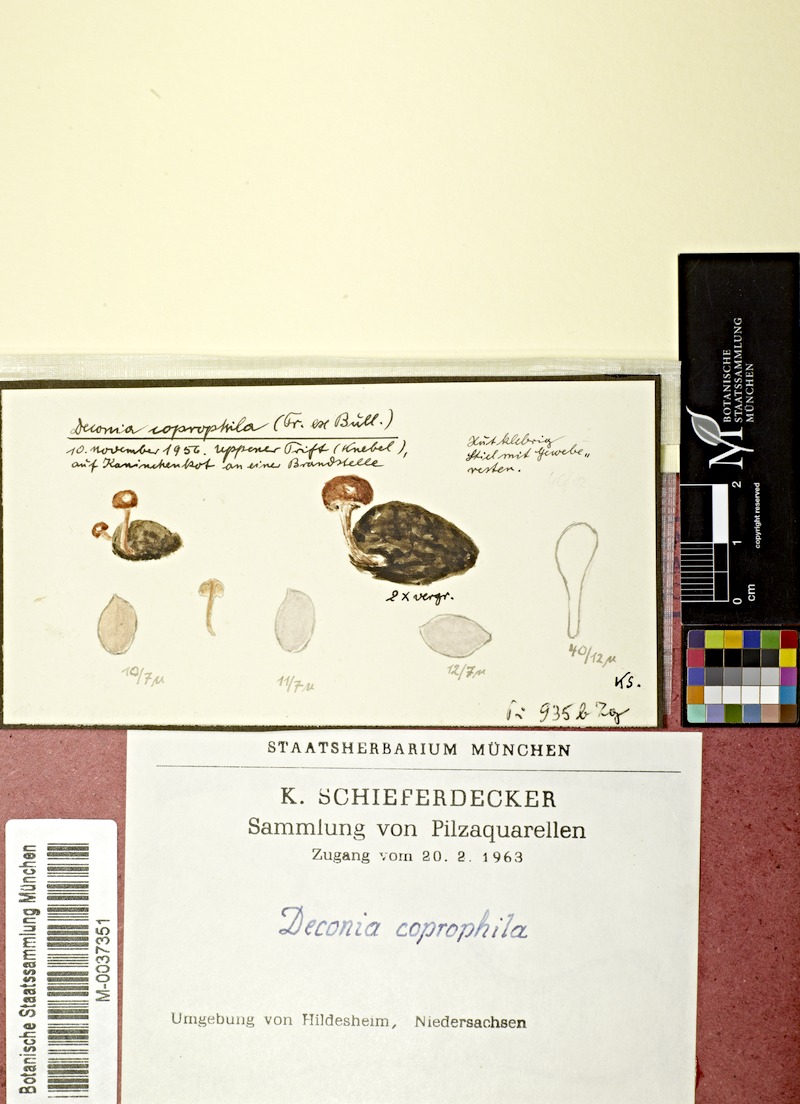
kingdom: Fungi
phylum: Basidiomycota
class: Agaricomycetes
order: Agaricales
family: Strophariaceae
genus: Deconica
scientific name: Deconica coprophila
